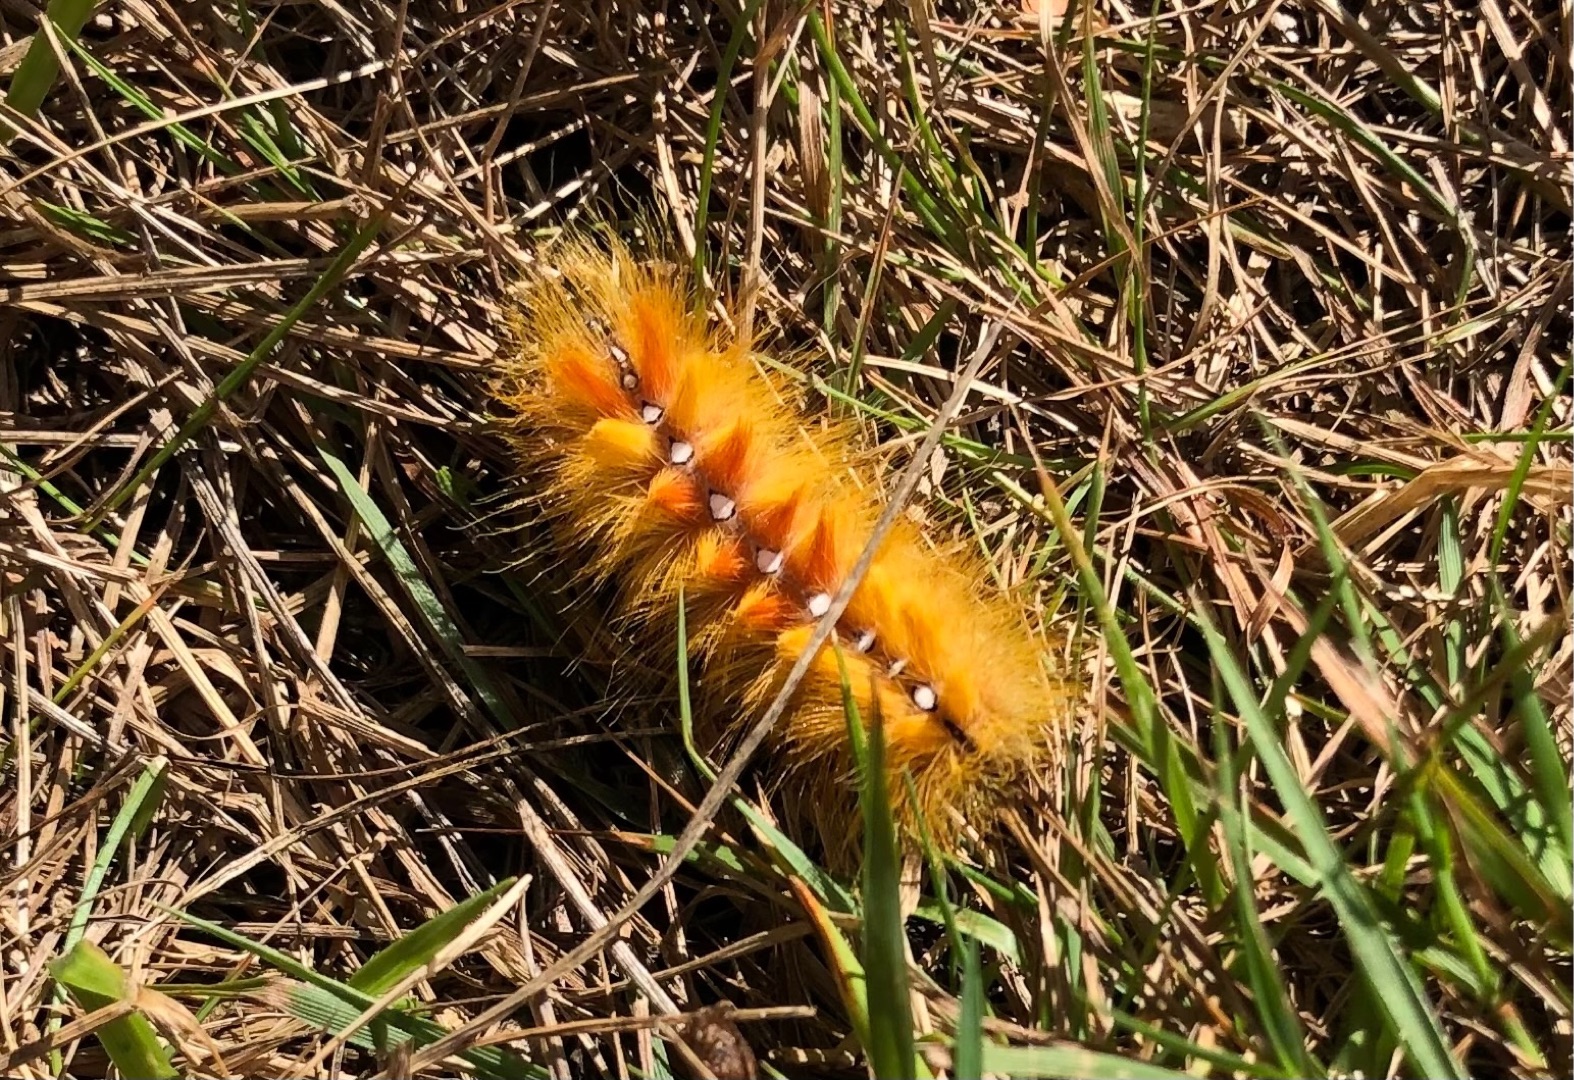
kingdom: Animalia
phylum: Arthropoda
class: Insecta
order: Lepidoptera
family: Noctuidae
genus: Acronicta
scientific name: Acronicta aceris
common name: Ahornugle
